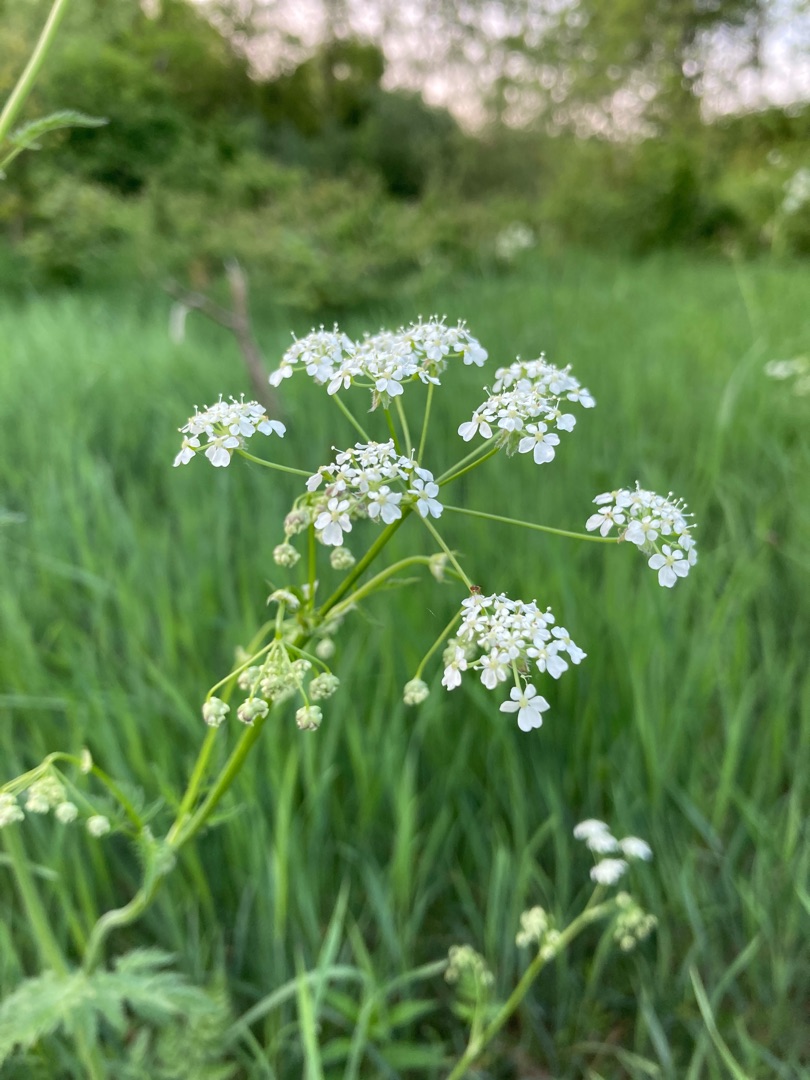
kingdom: Plantae
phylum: Tracheophyta
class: Magnoliopsida
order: Apiales
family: Apiaceae
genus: Anthriscus
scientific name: Anthriscus sylvestris
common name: Vild kørvel
